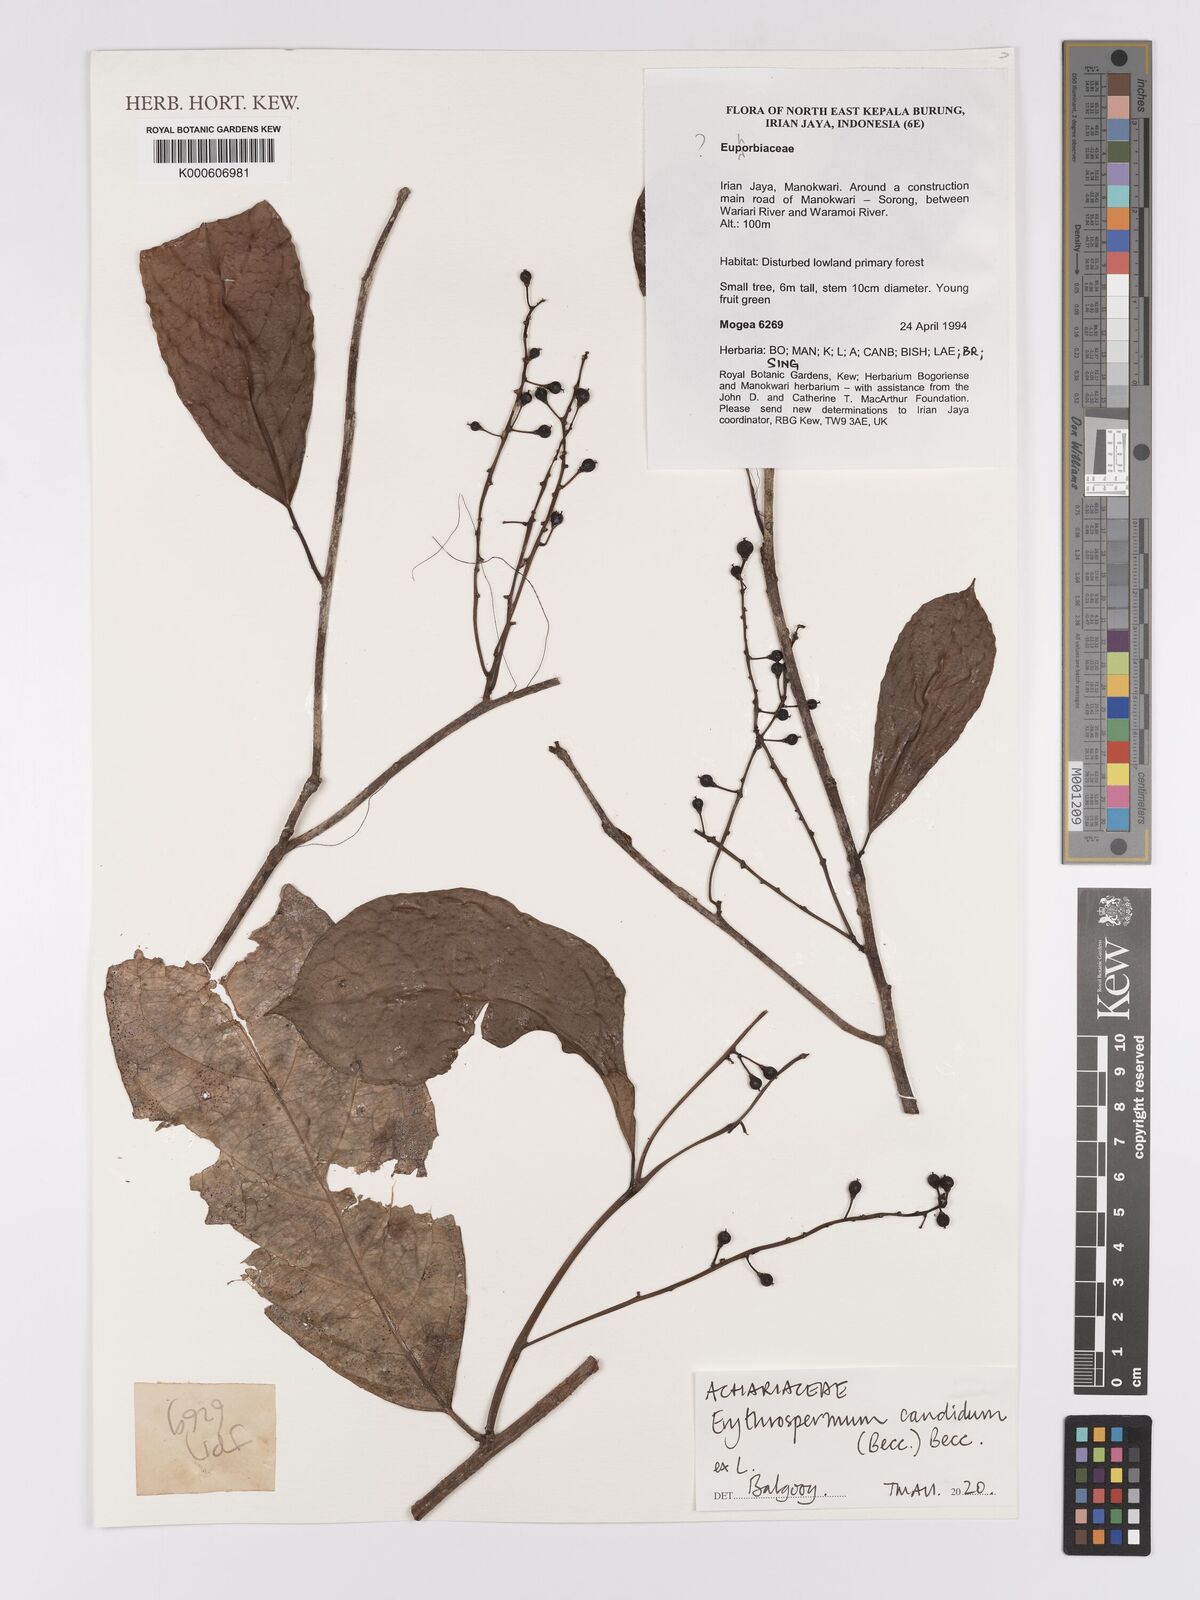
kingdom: Plantae
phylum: Tracheophyta
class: Magnoliopsida
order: Malpighiales
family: Achariaceae
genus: Erythrospermum
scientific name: Erythrospermum candidum
